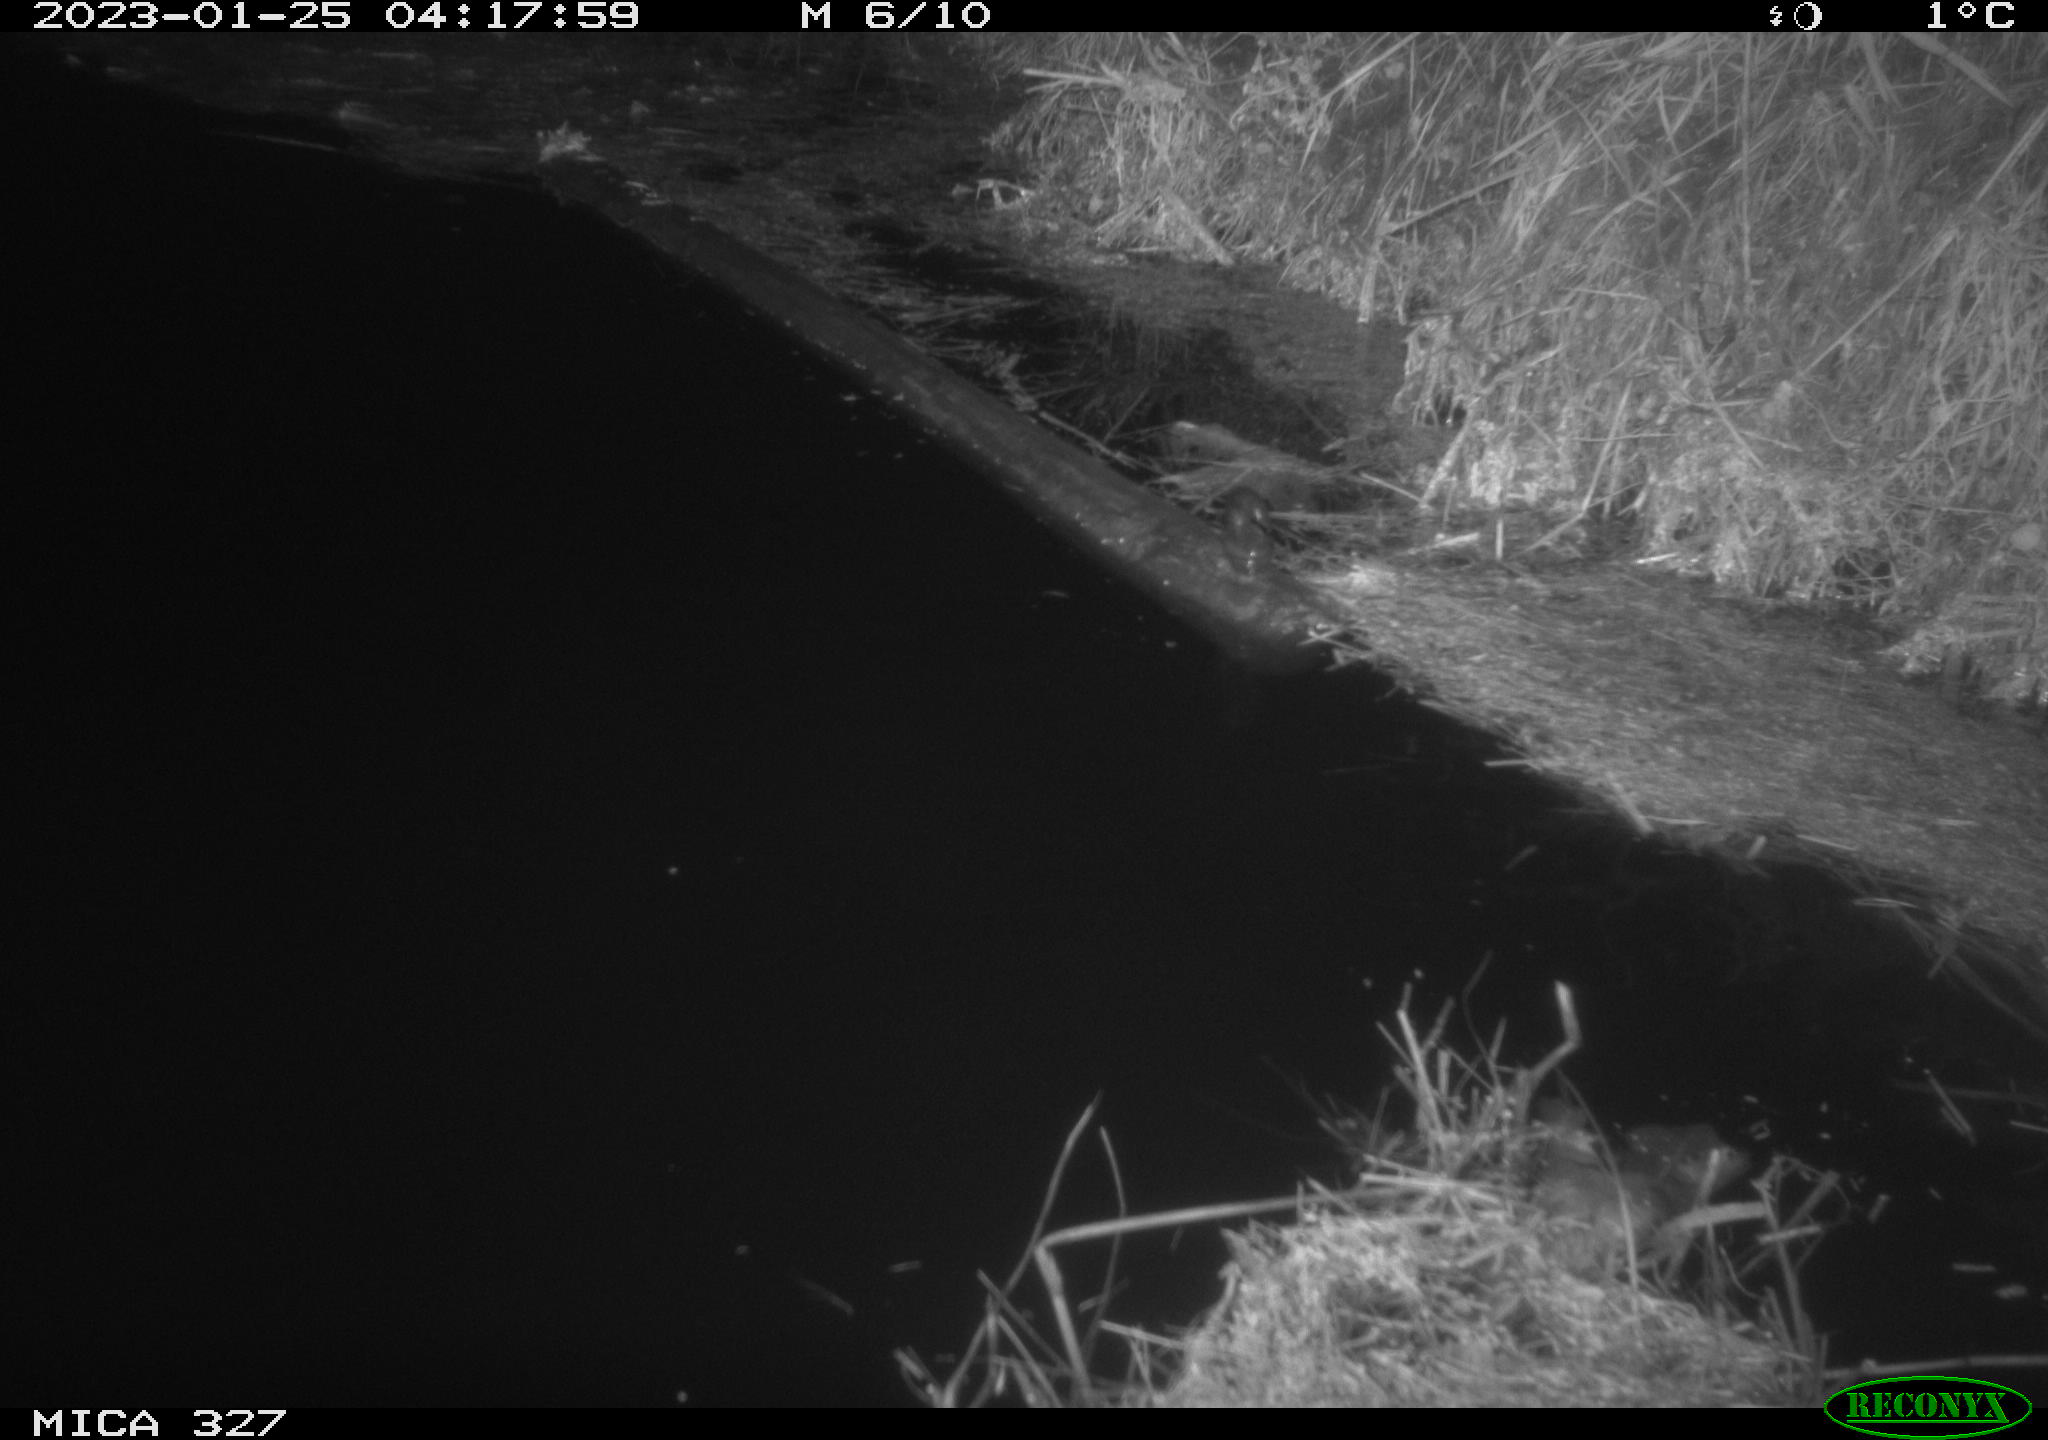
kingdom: Animalia
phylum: Chordata
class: Mammalia
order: Rodentia
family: Cricetidae
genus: Ondatra
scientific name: Ondatra zibethicus
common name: Muskrat
